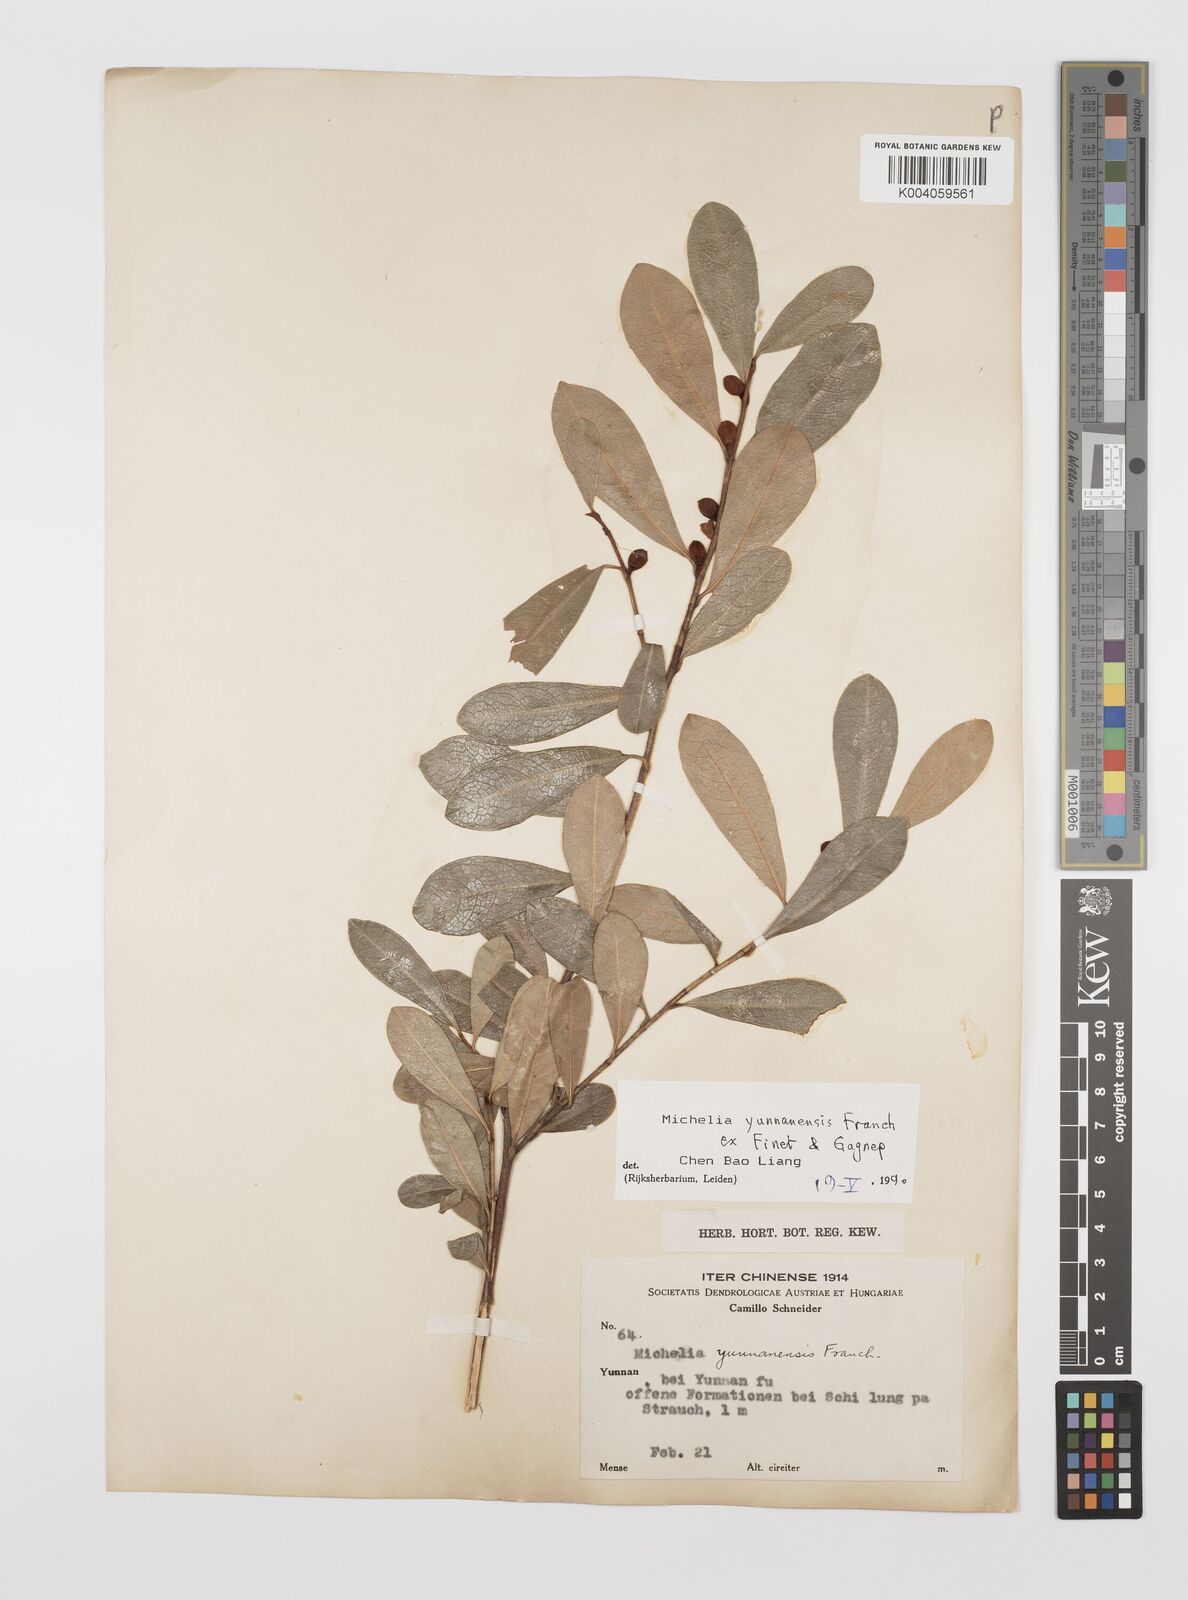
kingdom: Plantae
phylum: Tracheophyta
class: Magnoliopsida
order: Magnoliales
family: Magnoliaceae
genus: Magnolia
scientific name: Magnolia laevifolia
